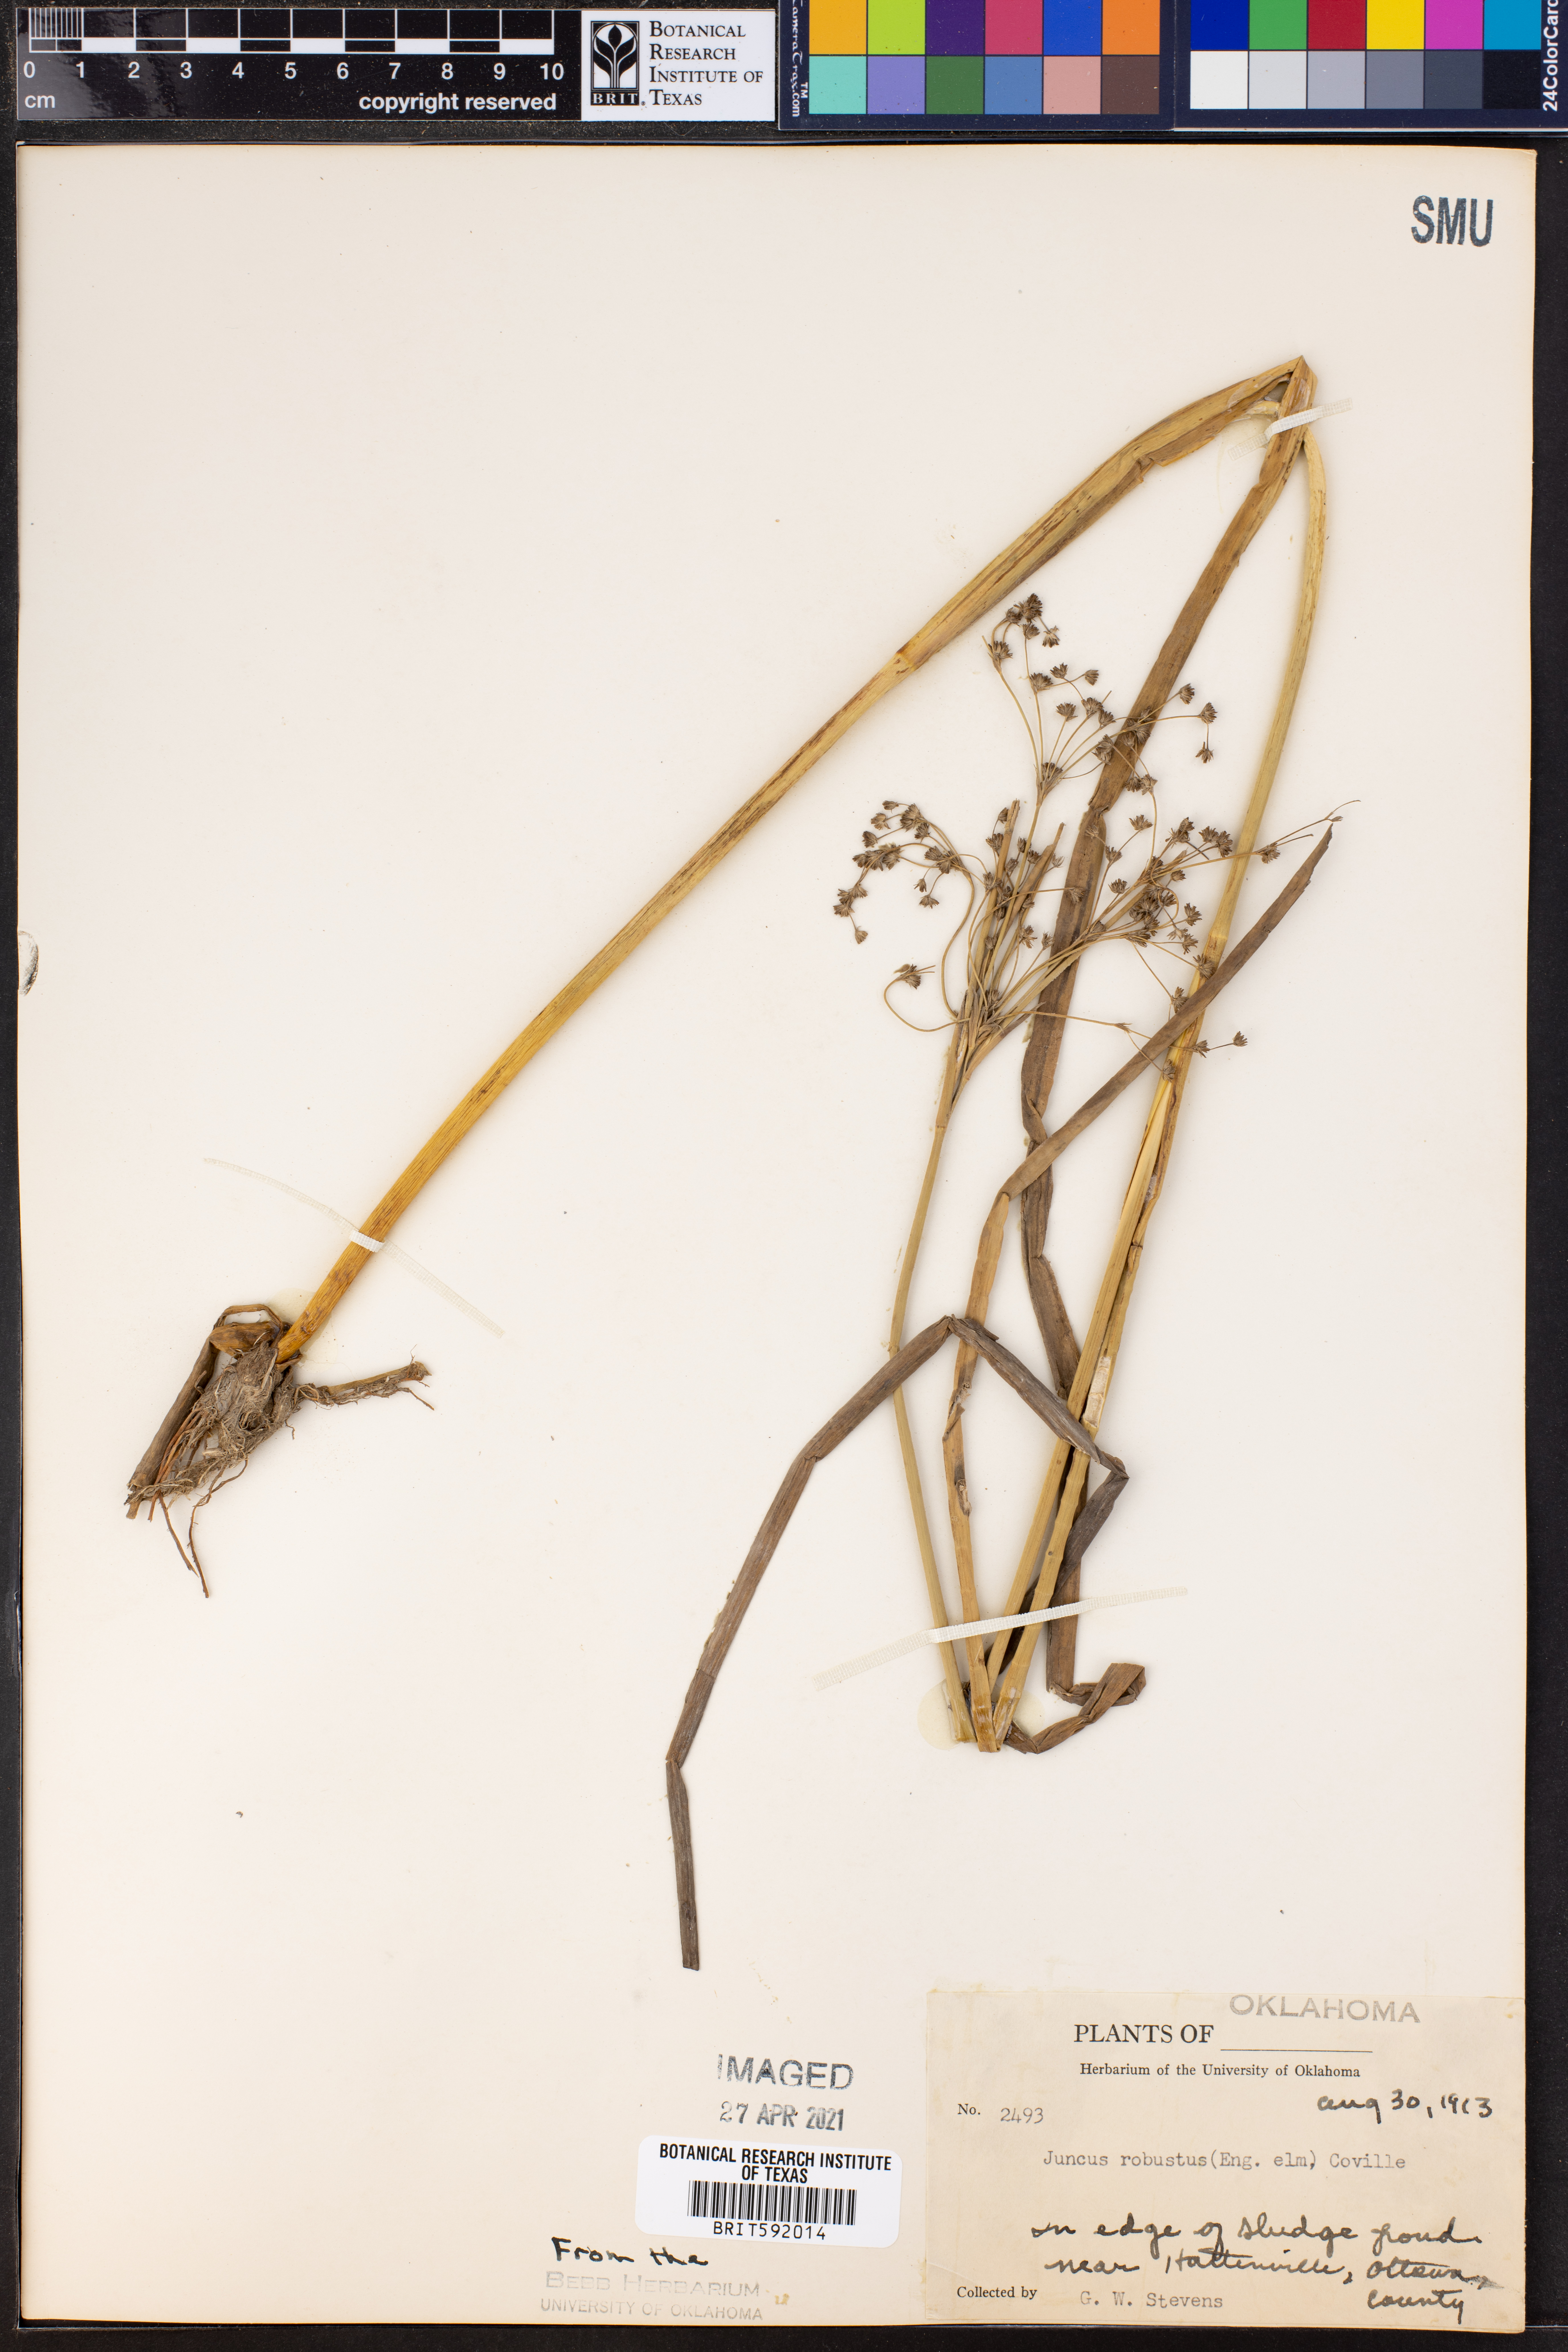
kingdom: Plantae
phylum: Tracheophyta
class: Liliopsida
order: Poales
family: Juncaceae
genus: Juncus
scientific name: Juncus nodatus
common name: Stout rush
